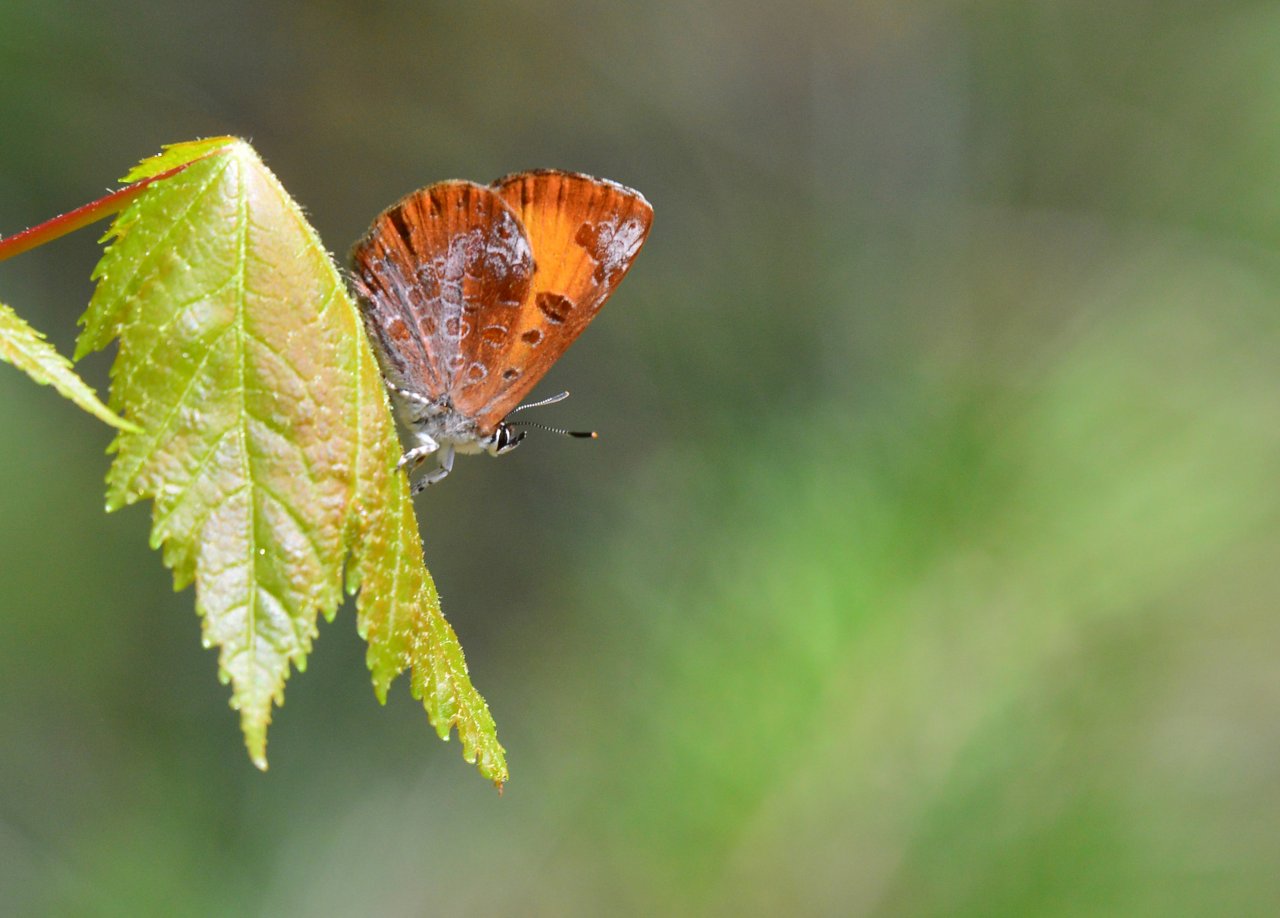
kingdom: Animalia
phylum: Arthropoda
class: Insecta
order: Lepidoptera
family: Lycaenidae
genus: Feniseca
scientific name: Feniseca tarquinius
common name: Harvester
